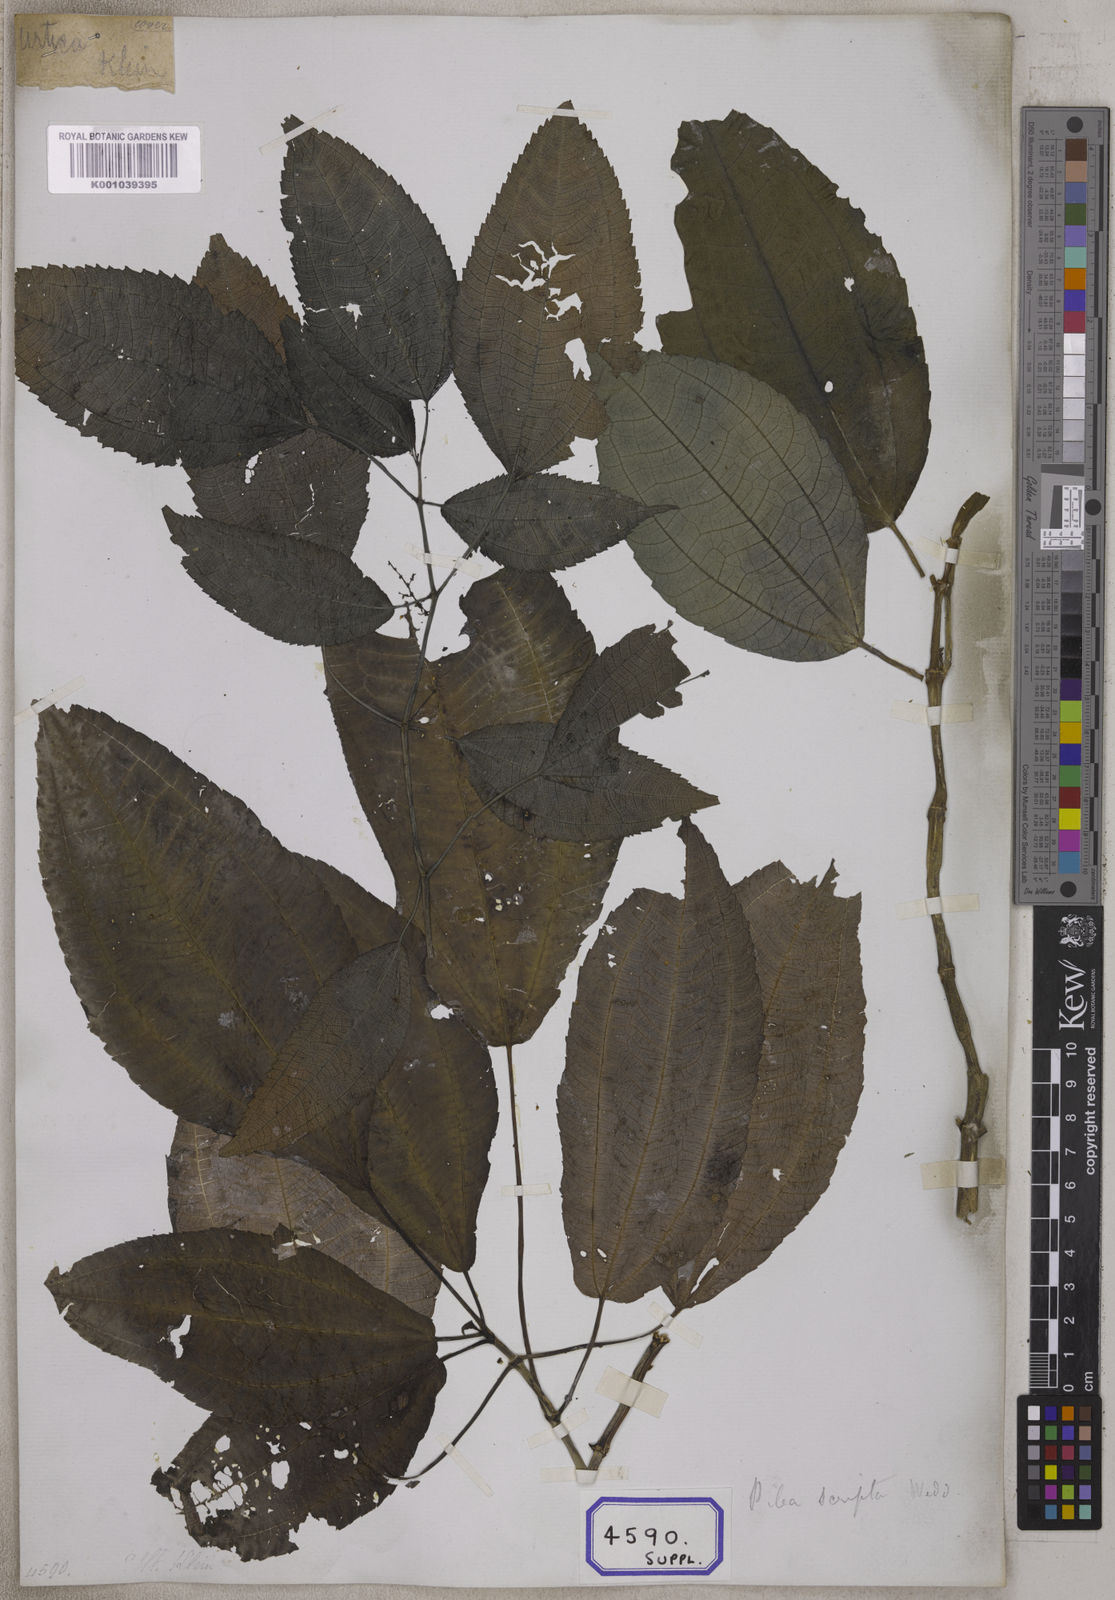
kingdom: Plantae
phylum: Tracheophyta
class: Magnoliopsida
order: Rosales
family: Urticaceae
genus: Boehmeria
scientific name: Boehmeria hamiltoniana
